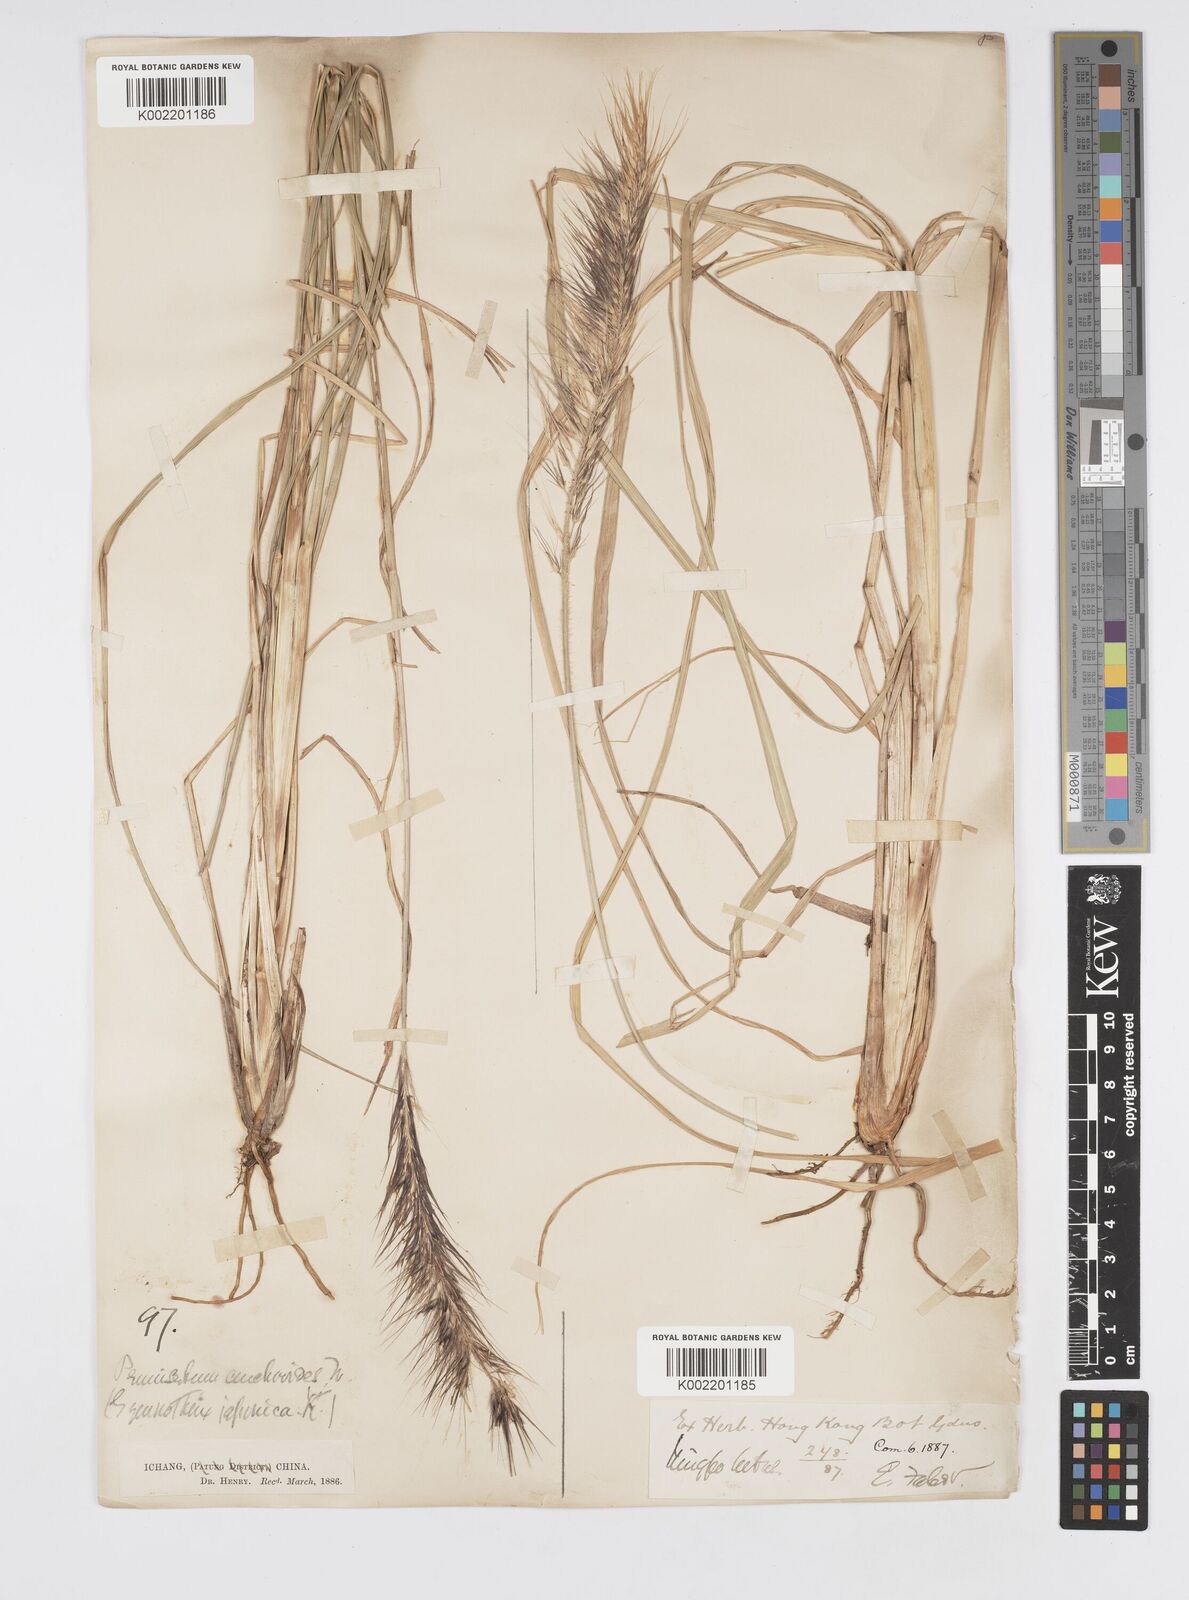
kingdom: Plantae
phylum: Tracheophyta
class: Liliopsida
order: Poales
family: Poaceae
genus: Cenchrus
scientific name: Cenchrus alopecuroides
